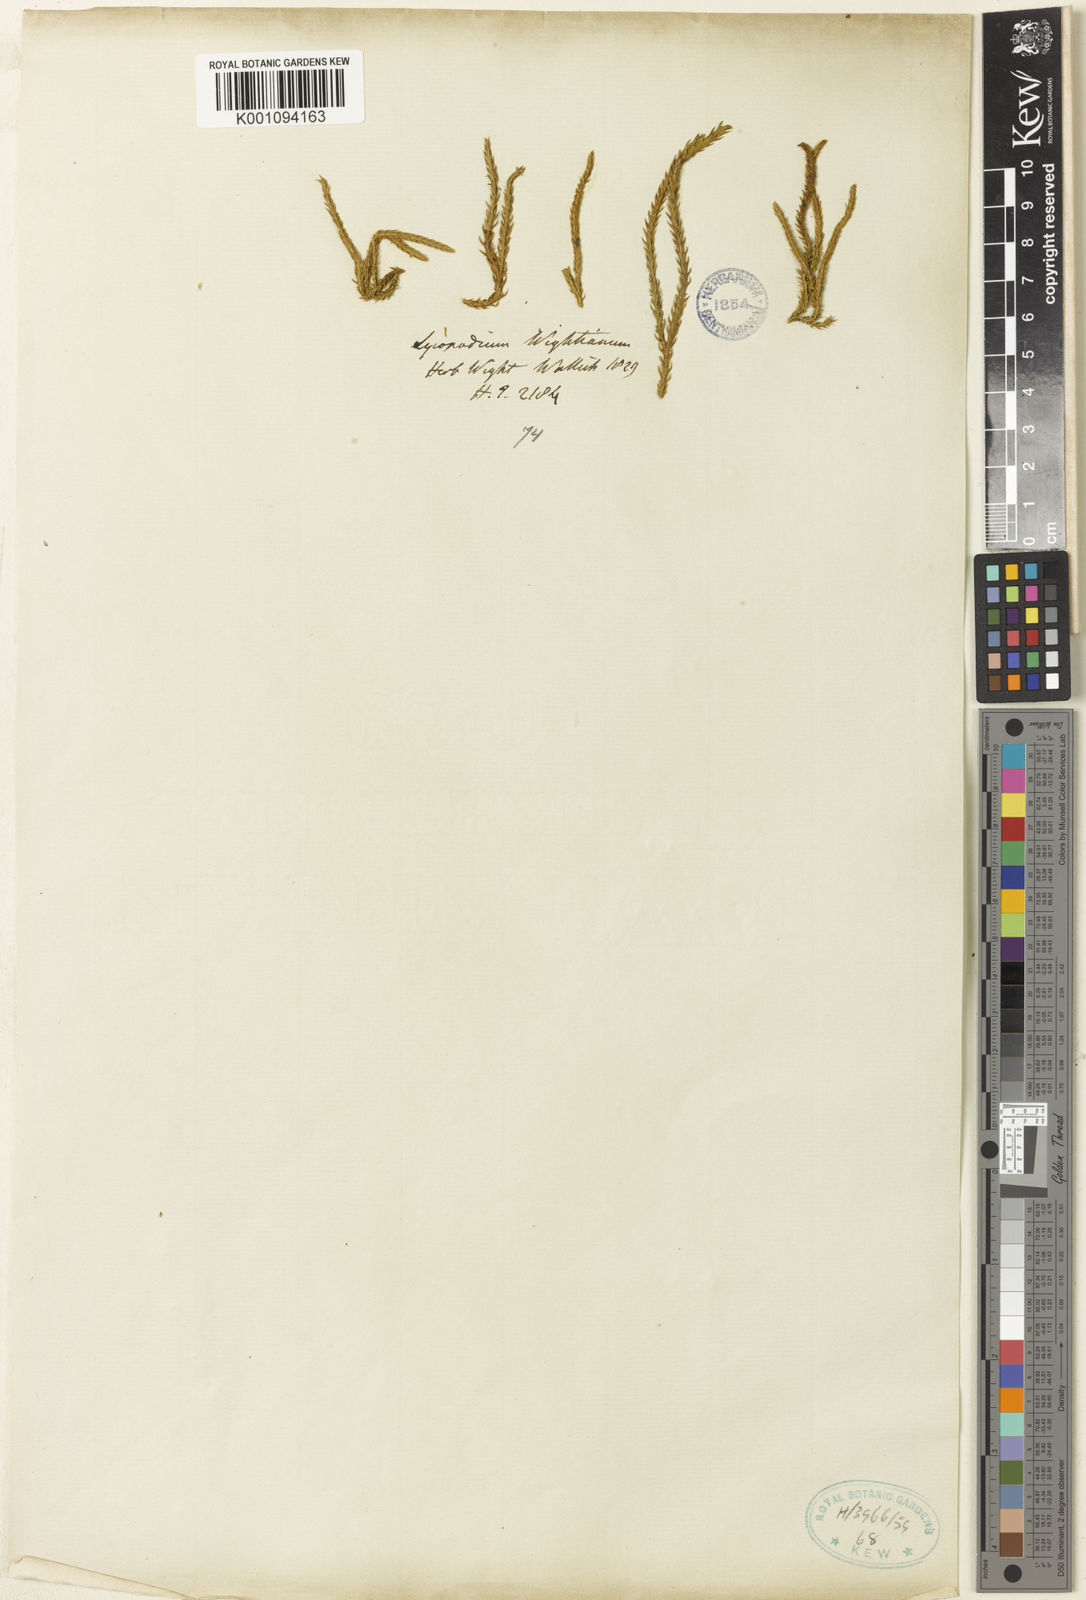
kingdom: Plantae
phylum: Tracheophyta
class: Lycopodiopsida
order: Lycopodiales
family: Lycopodiaceae
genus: Lycopodium
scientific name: Lycopodium
